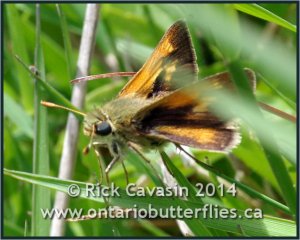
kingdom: Animalia
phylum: Arthropoda
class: Insecta
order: Lepidoptera
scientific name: Lepidoptera
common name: Butterflies
